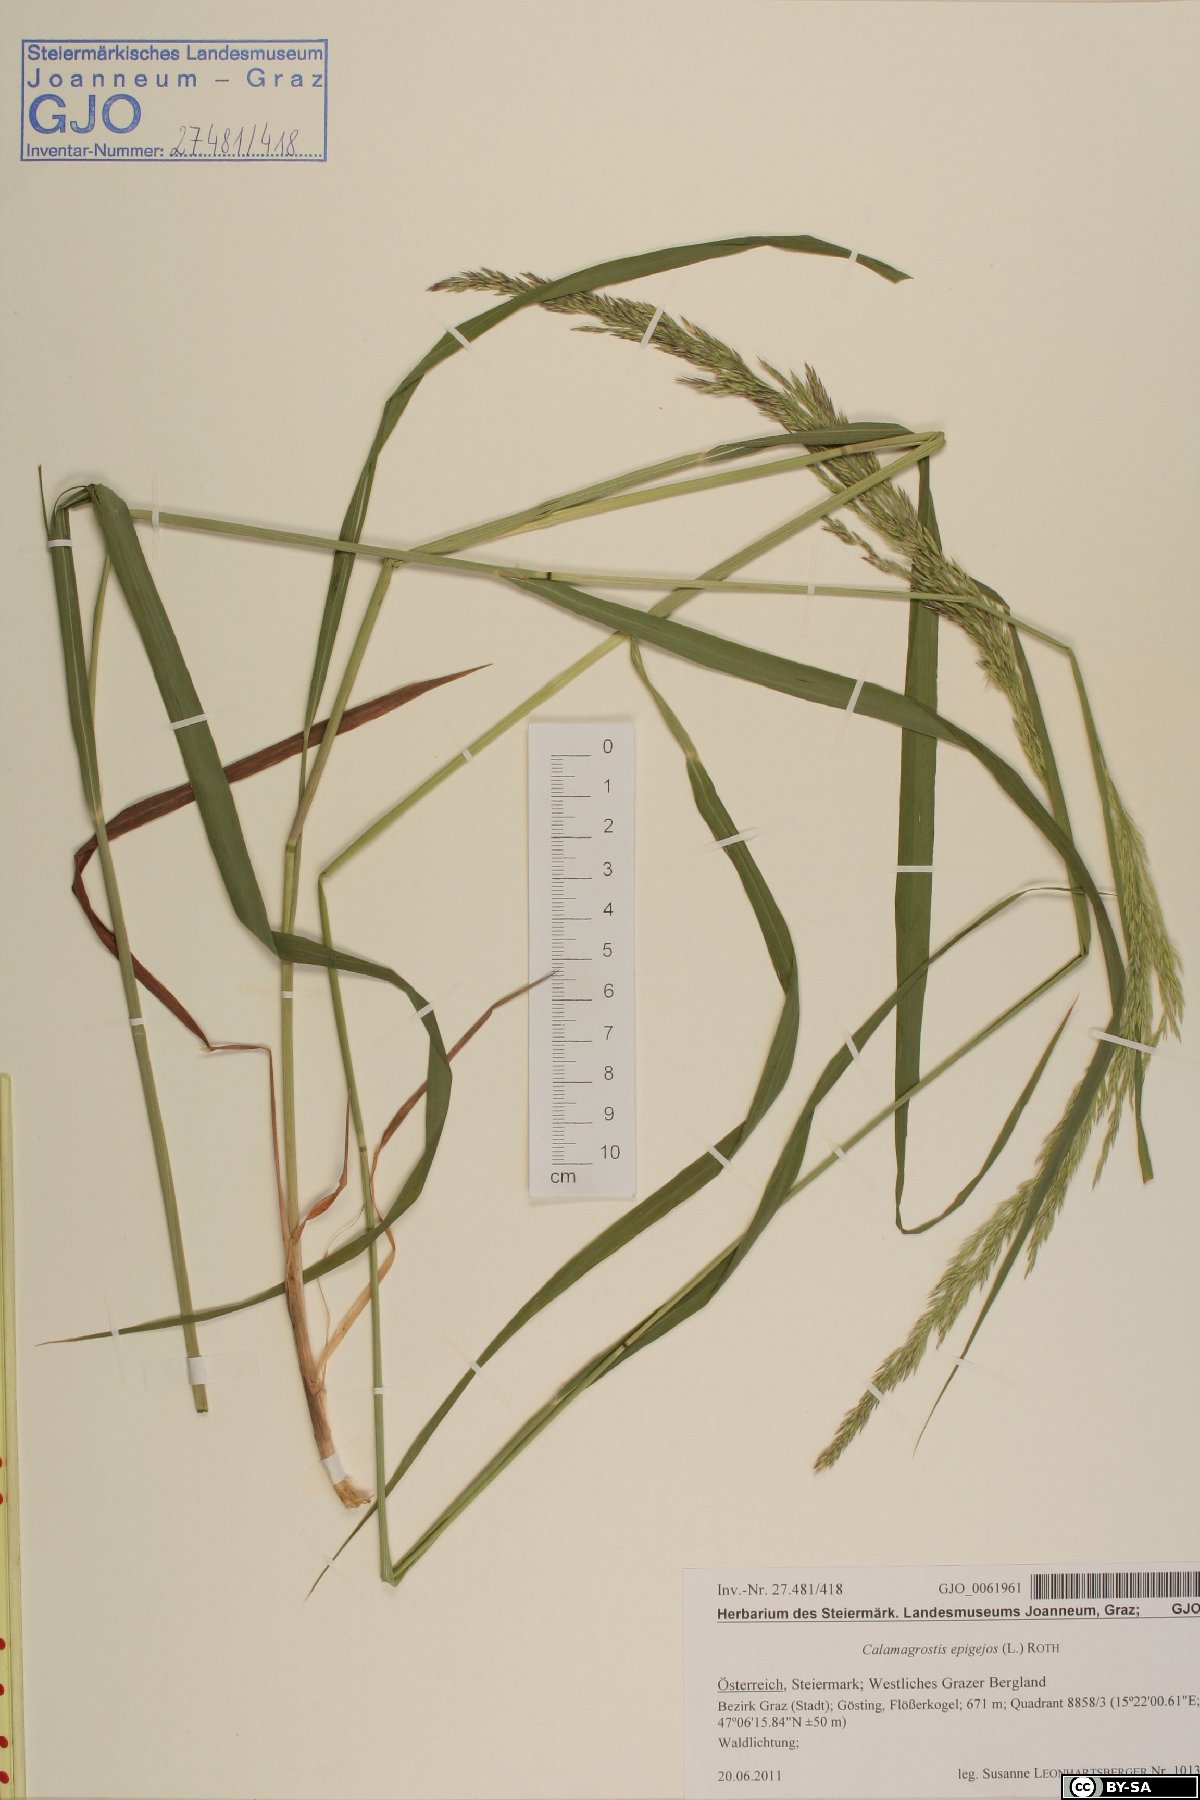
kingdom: Plantae
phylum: Tracheophyta
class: Liliopsida
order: Poales
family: Poaceae
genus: Calamagrostis
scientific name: Calamagrostis epigejos
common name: Wood small-reed
